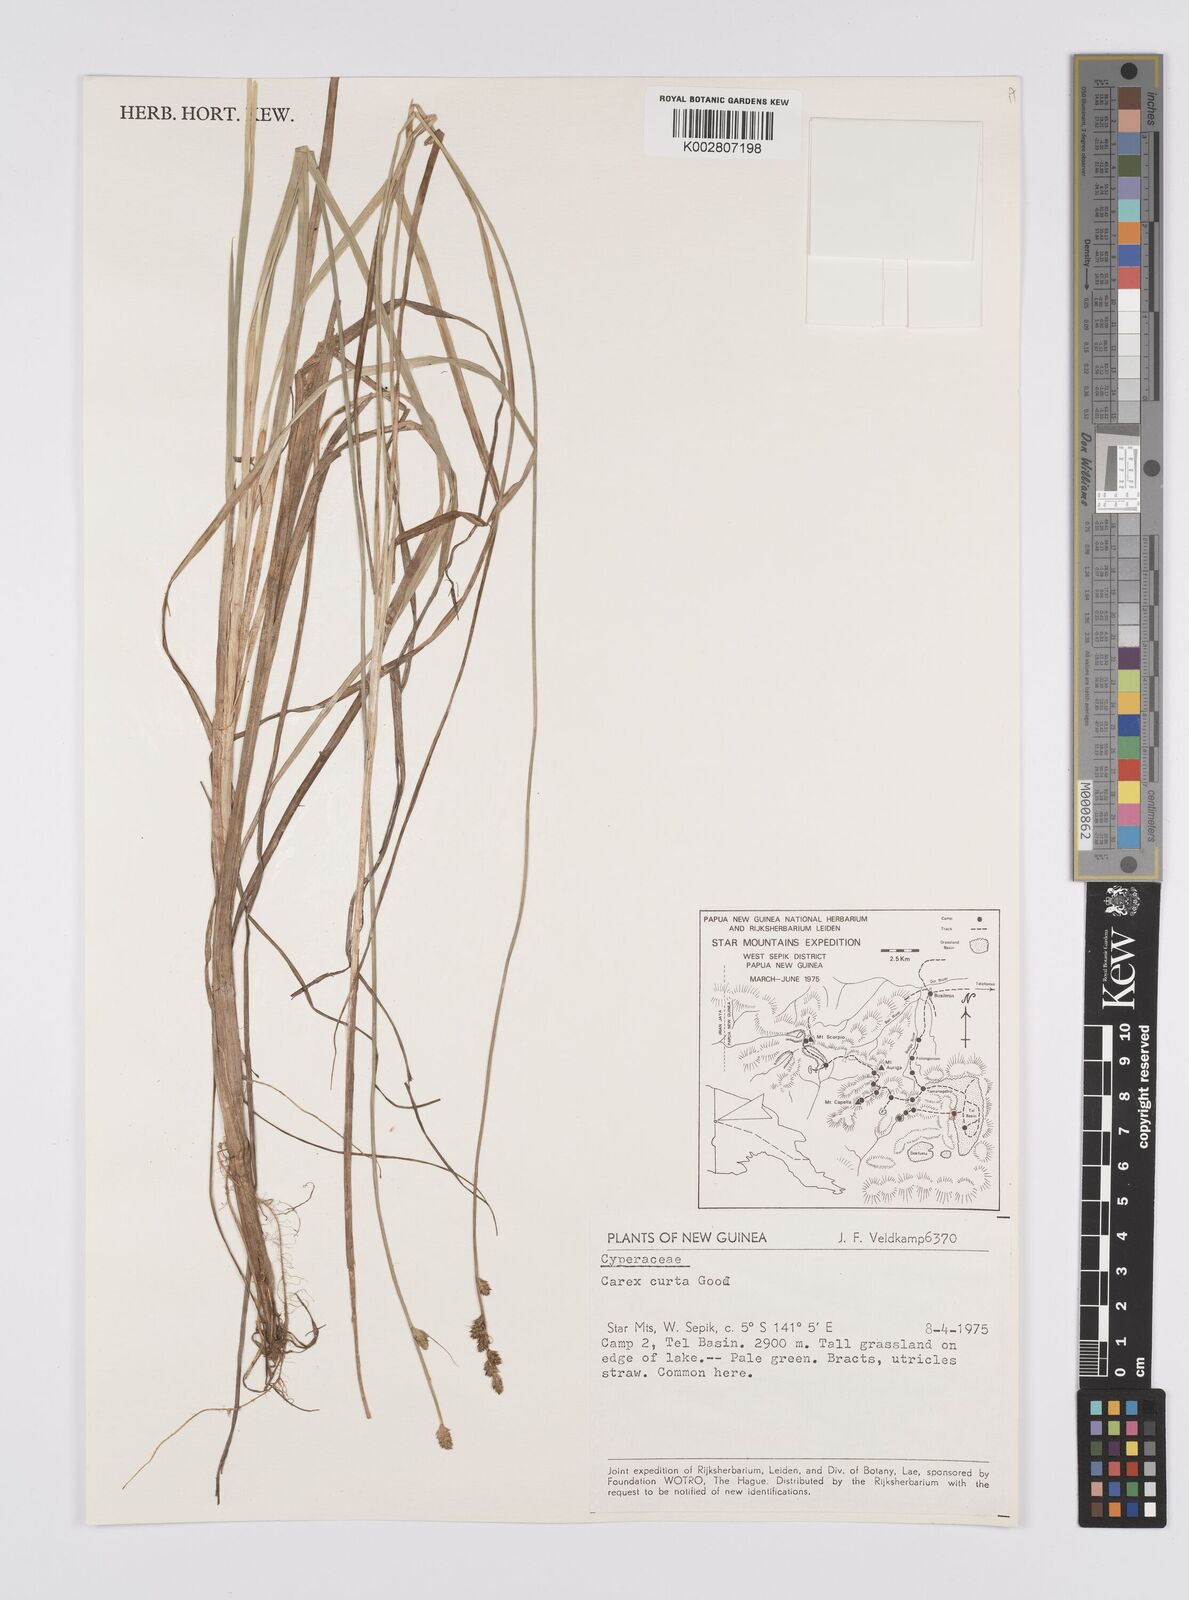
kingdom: Plantae
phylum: Tracheophyta
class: Liliopsida
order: Poales
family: Cyperaceae
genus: Carex
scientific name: Carex curta
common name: White sedge
